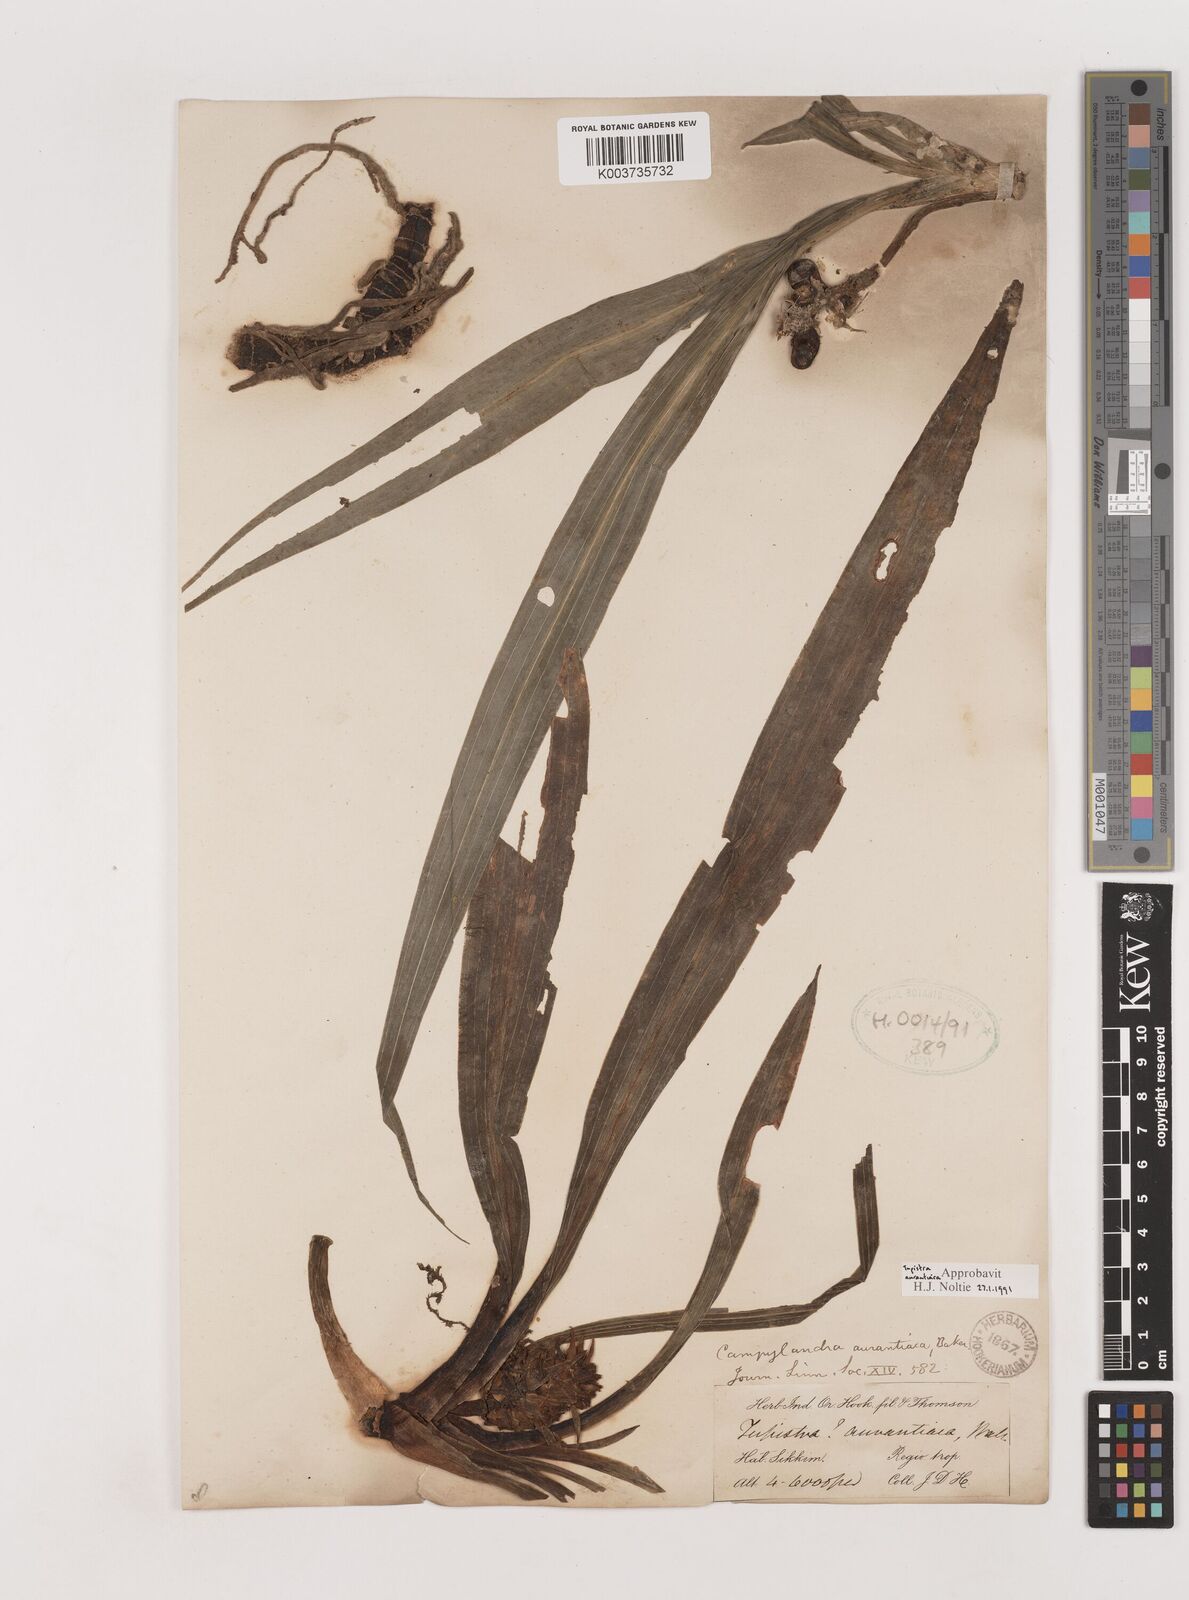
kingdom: Plantae
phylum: Tracheophyta
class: Liliopsida
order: Asparagales
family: Asparagaceae
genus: Rohdea
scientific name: Rohdea nepalensis
